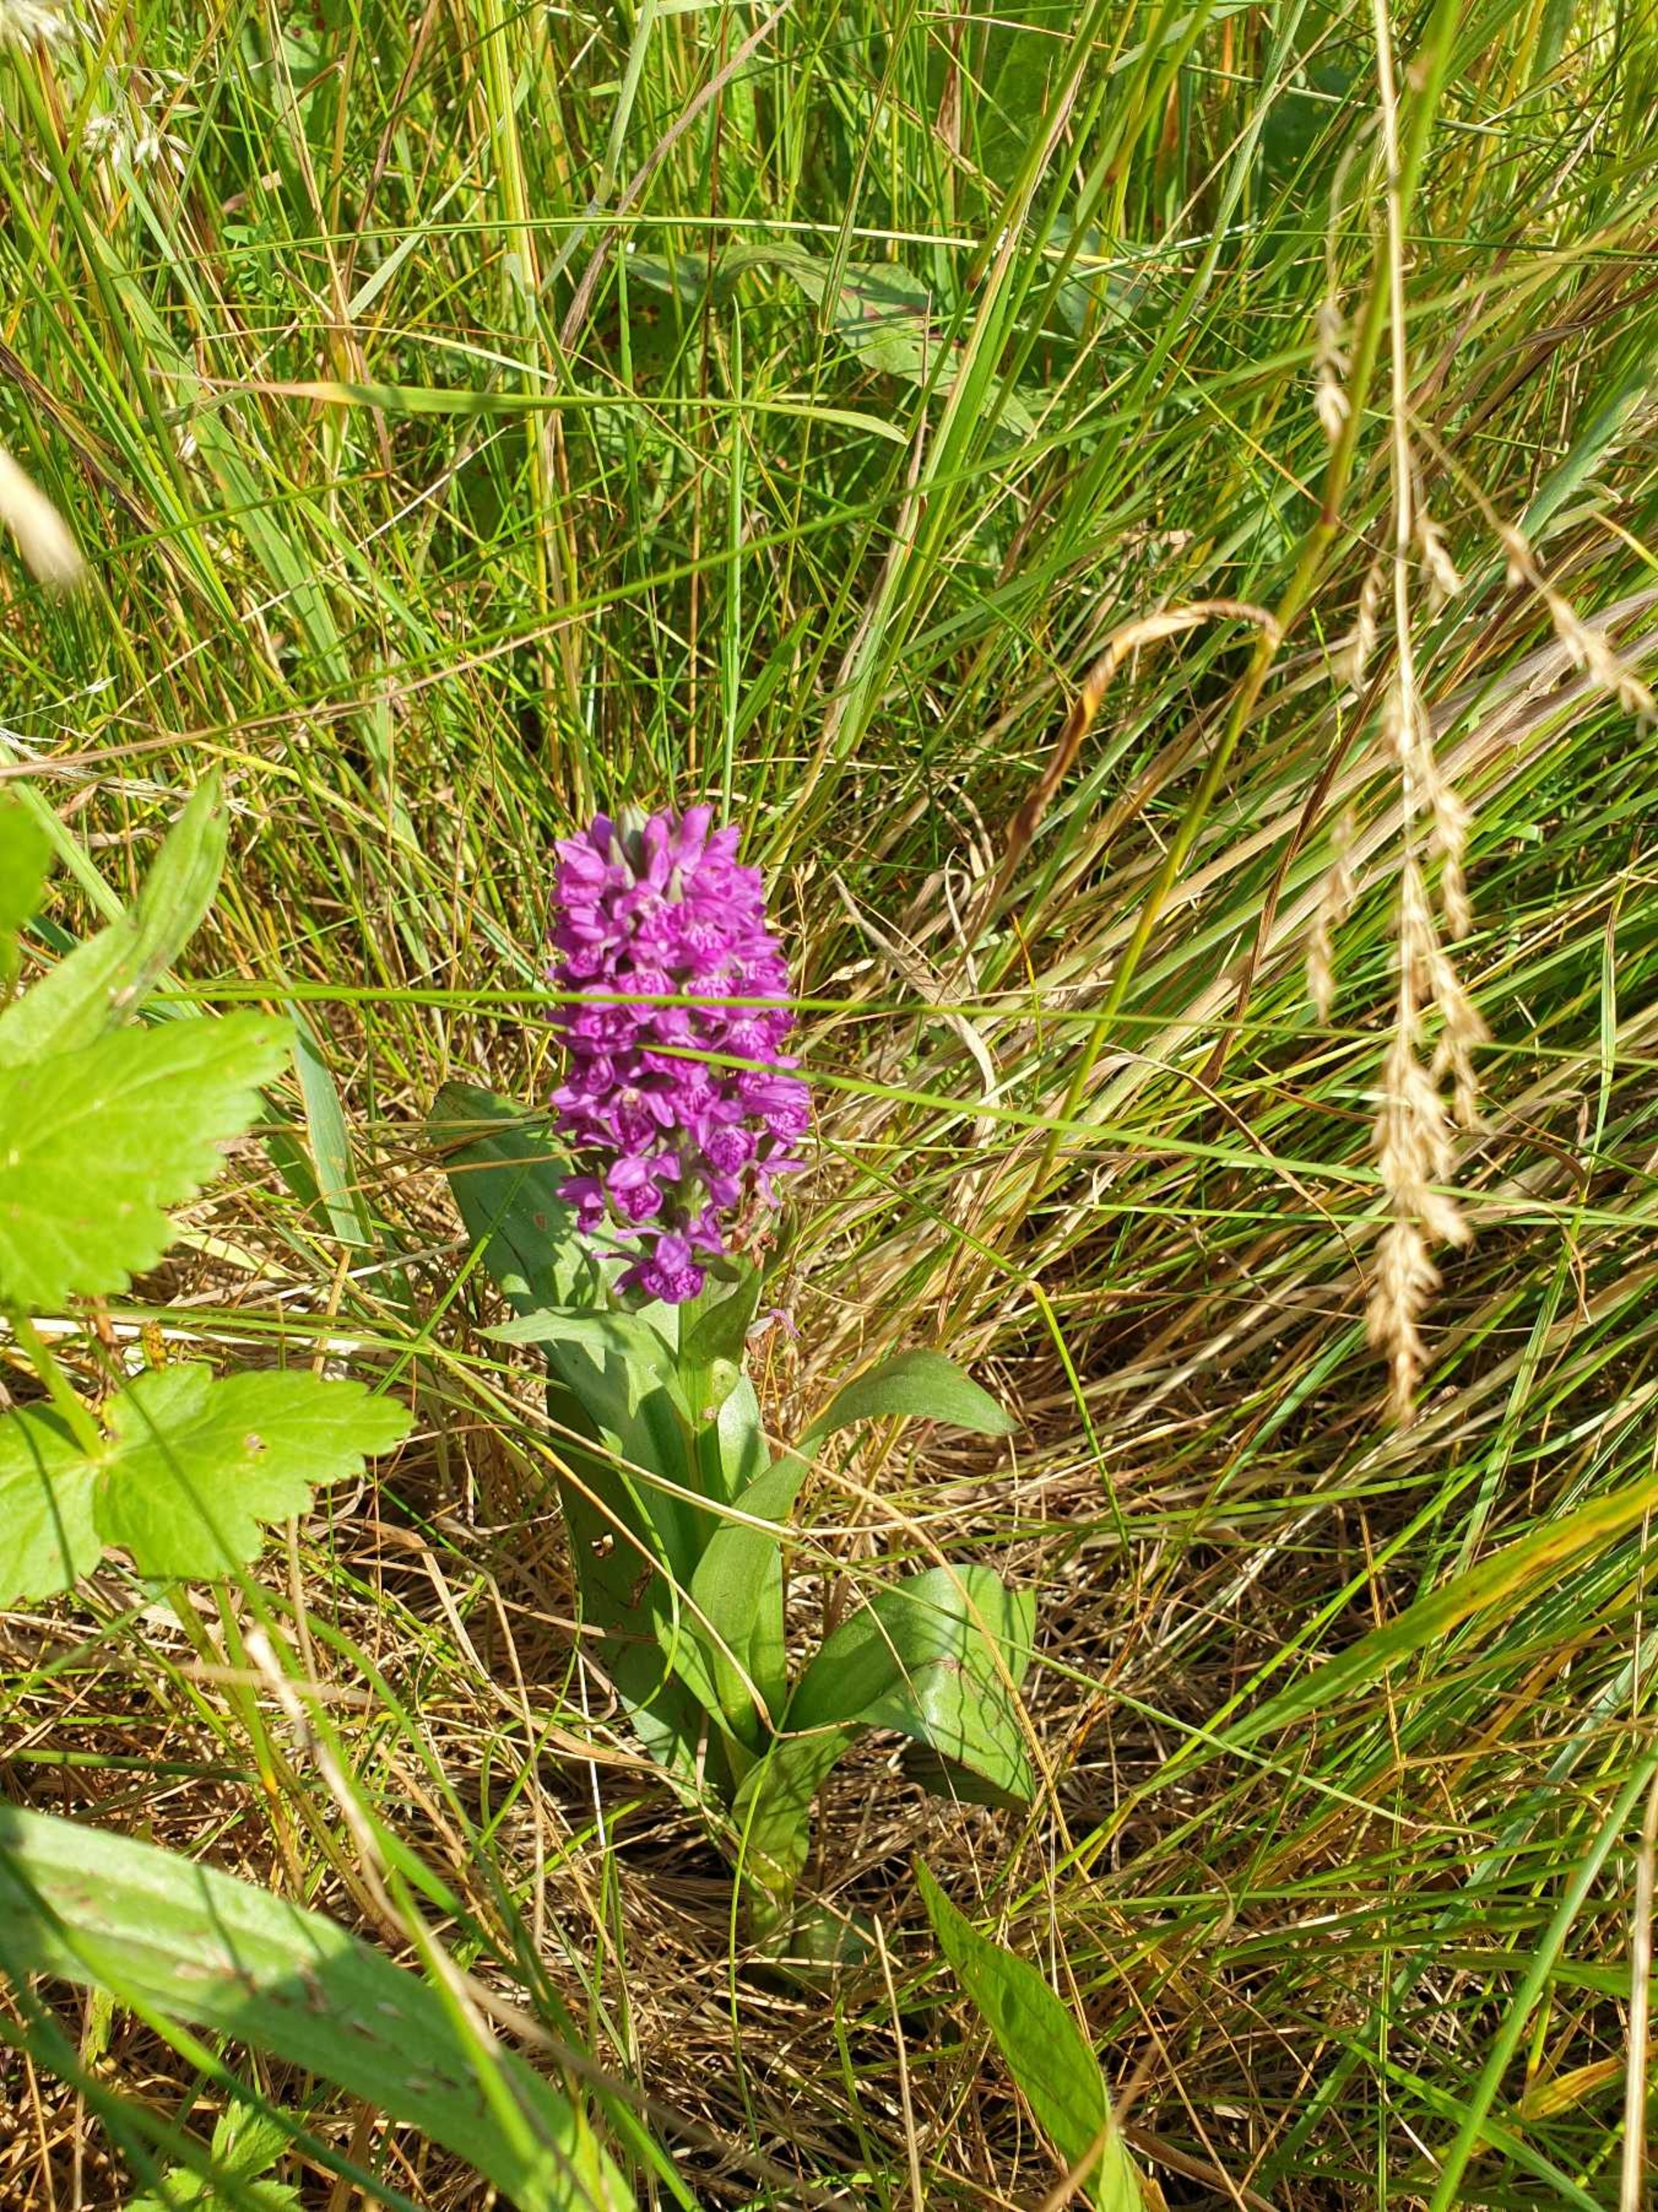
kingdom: Plantae
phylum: Tracheophyta
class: Liliopsida
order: Asparagales
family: Orchidaceae
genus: Dactylorhiza
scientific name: Dactylorhiza majalis
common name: Purpur-gøgeurt
